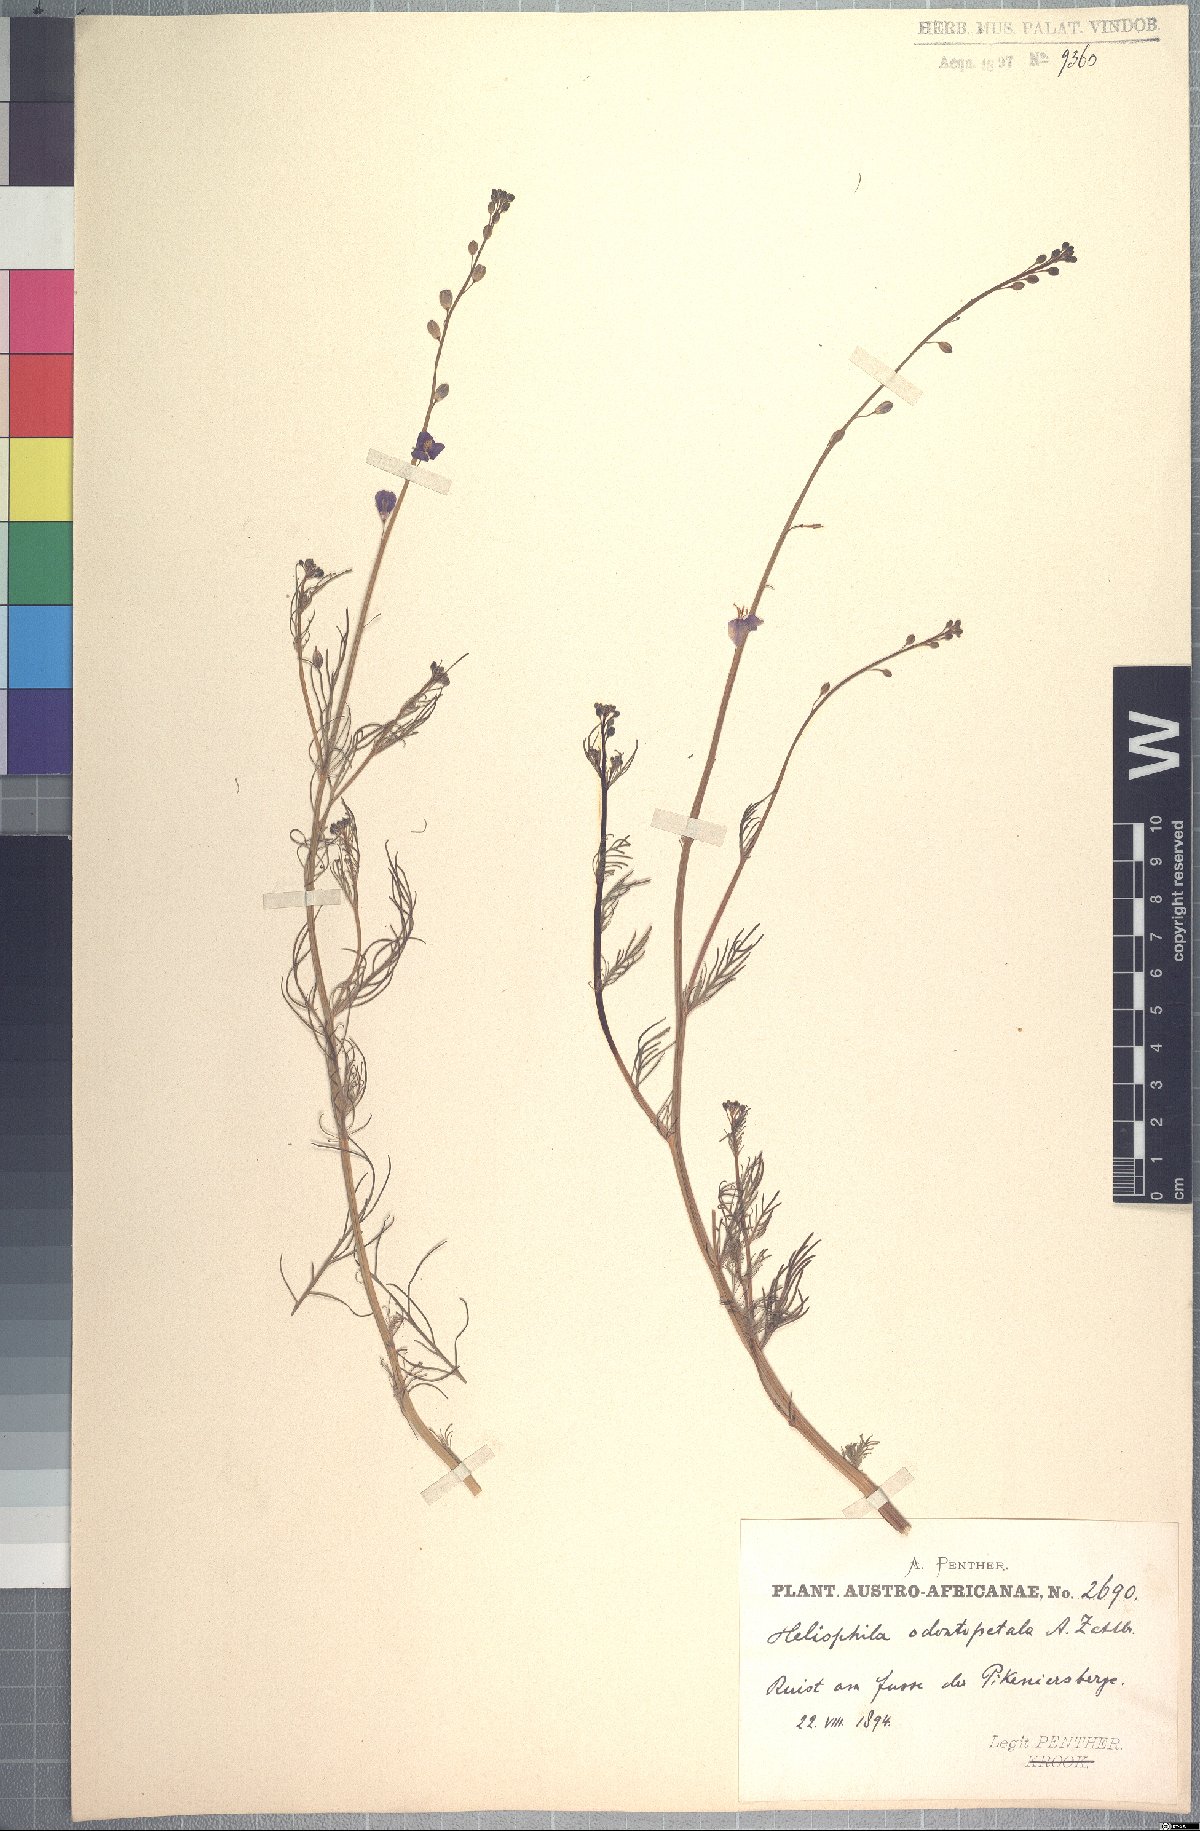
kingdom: Plantae
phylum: Tracheophyta
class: Magnoliopsida
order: Brassicales
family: Brassicaceae
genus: Heliophila
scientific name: Heliophila digitata
